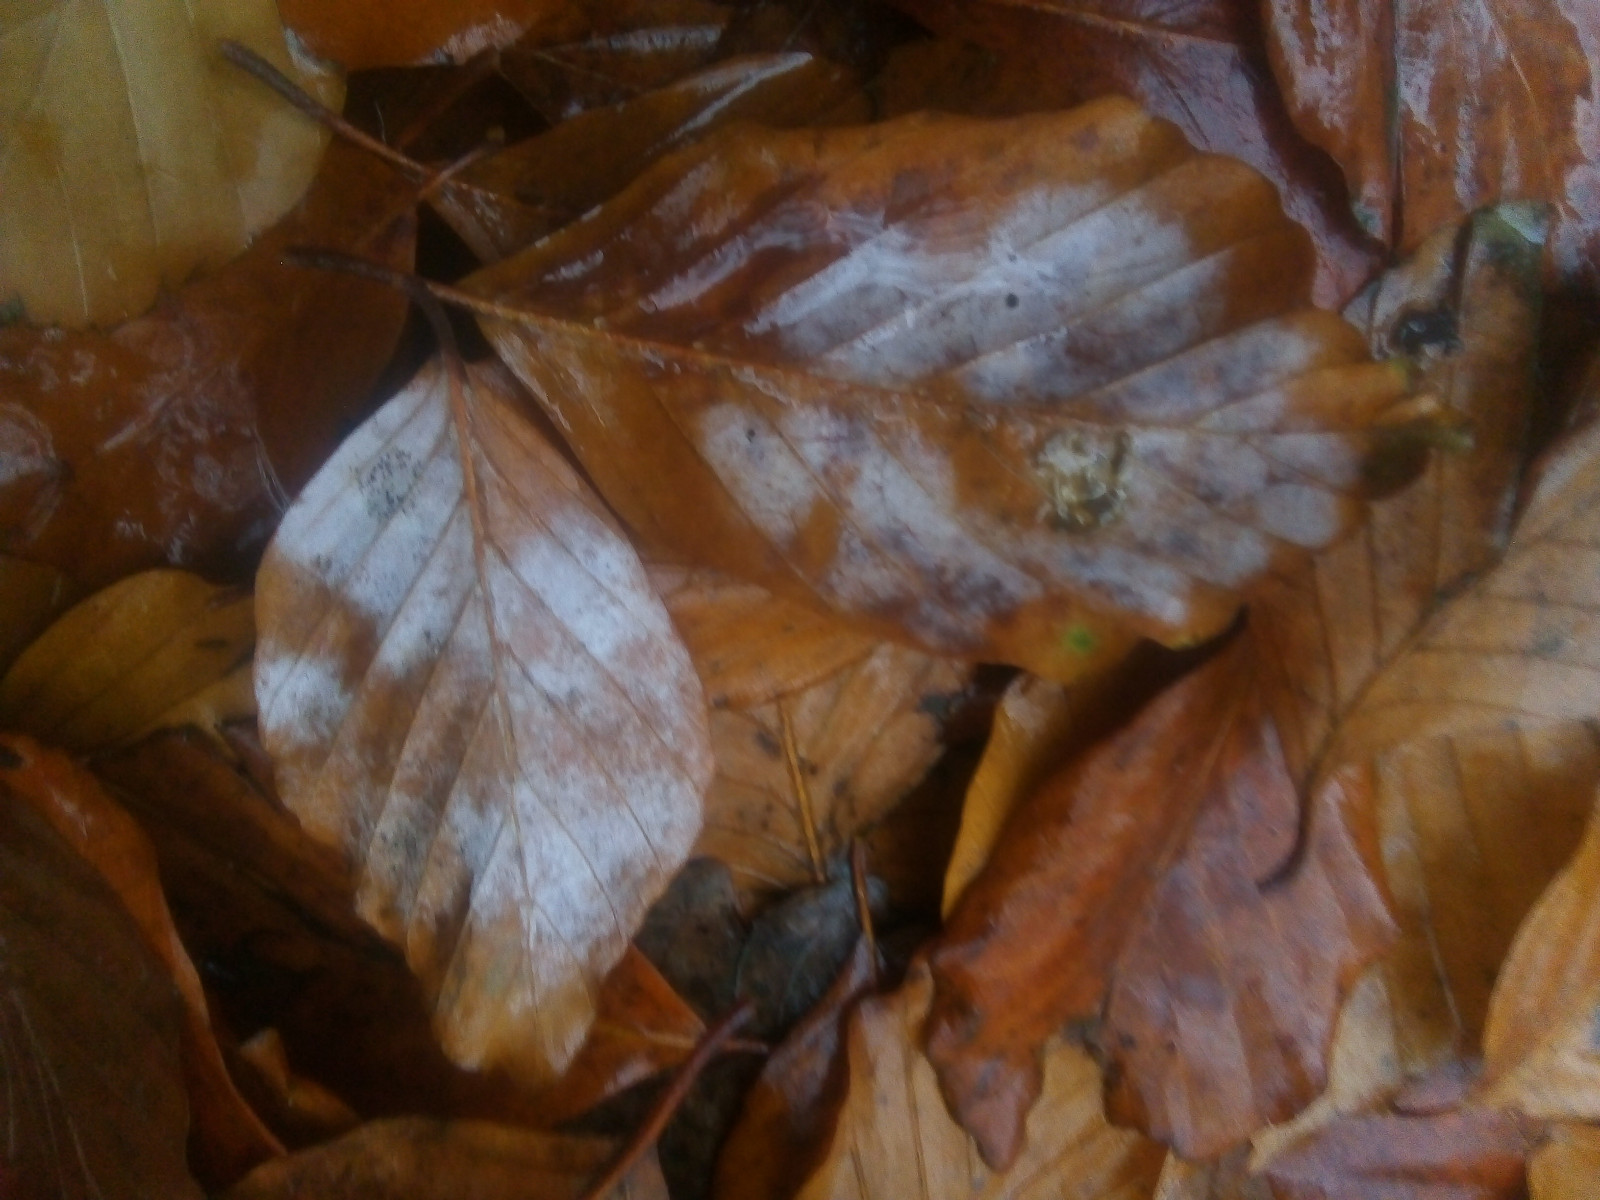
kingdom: Fungi
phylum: Ascomycota
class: Leotiomycetes
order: Helotiales
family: Erysiphaceae
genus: Phyllactinia
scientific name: Phyllactinia orbicularis
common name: bøge-meldug
